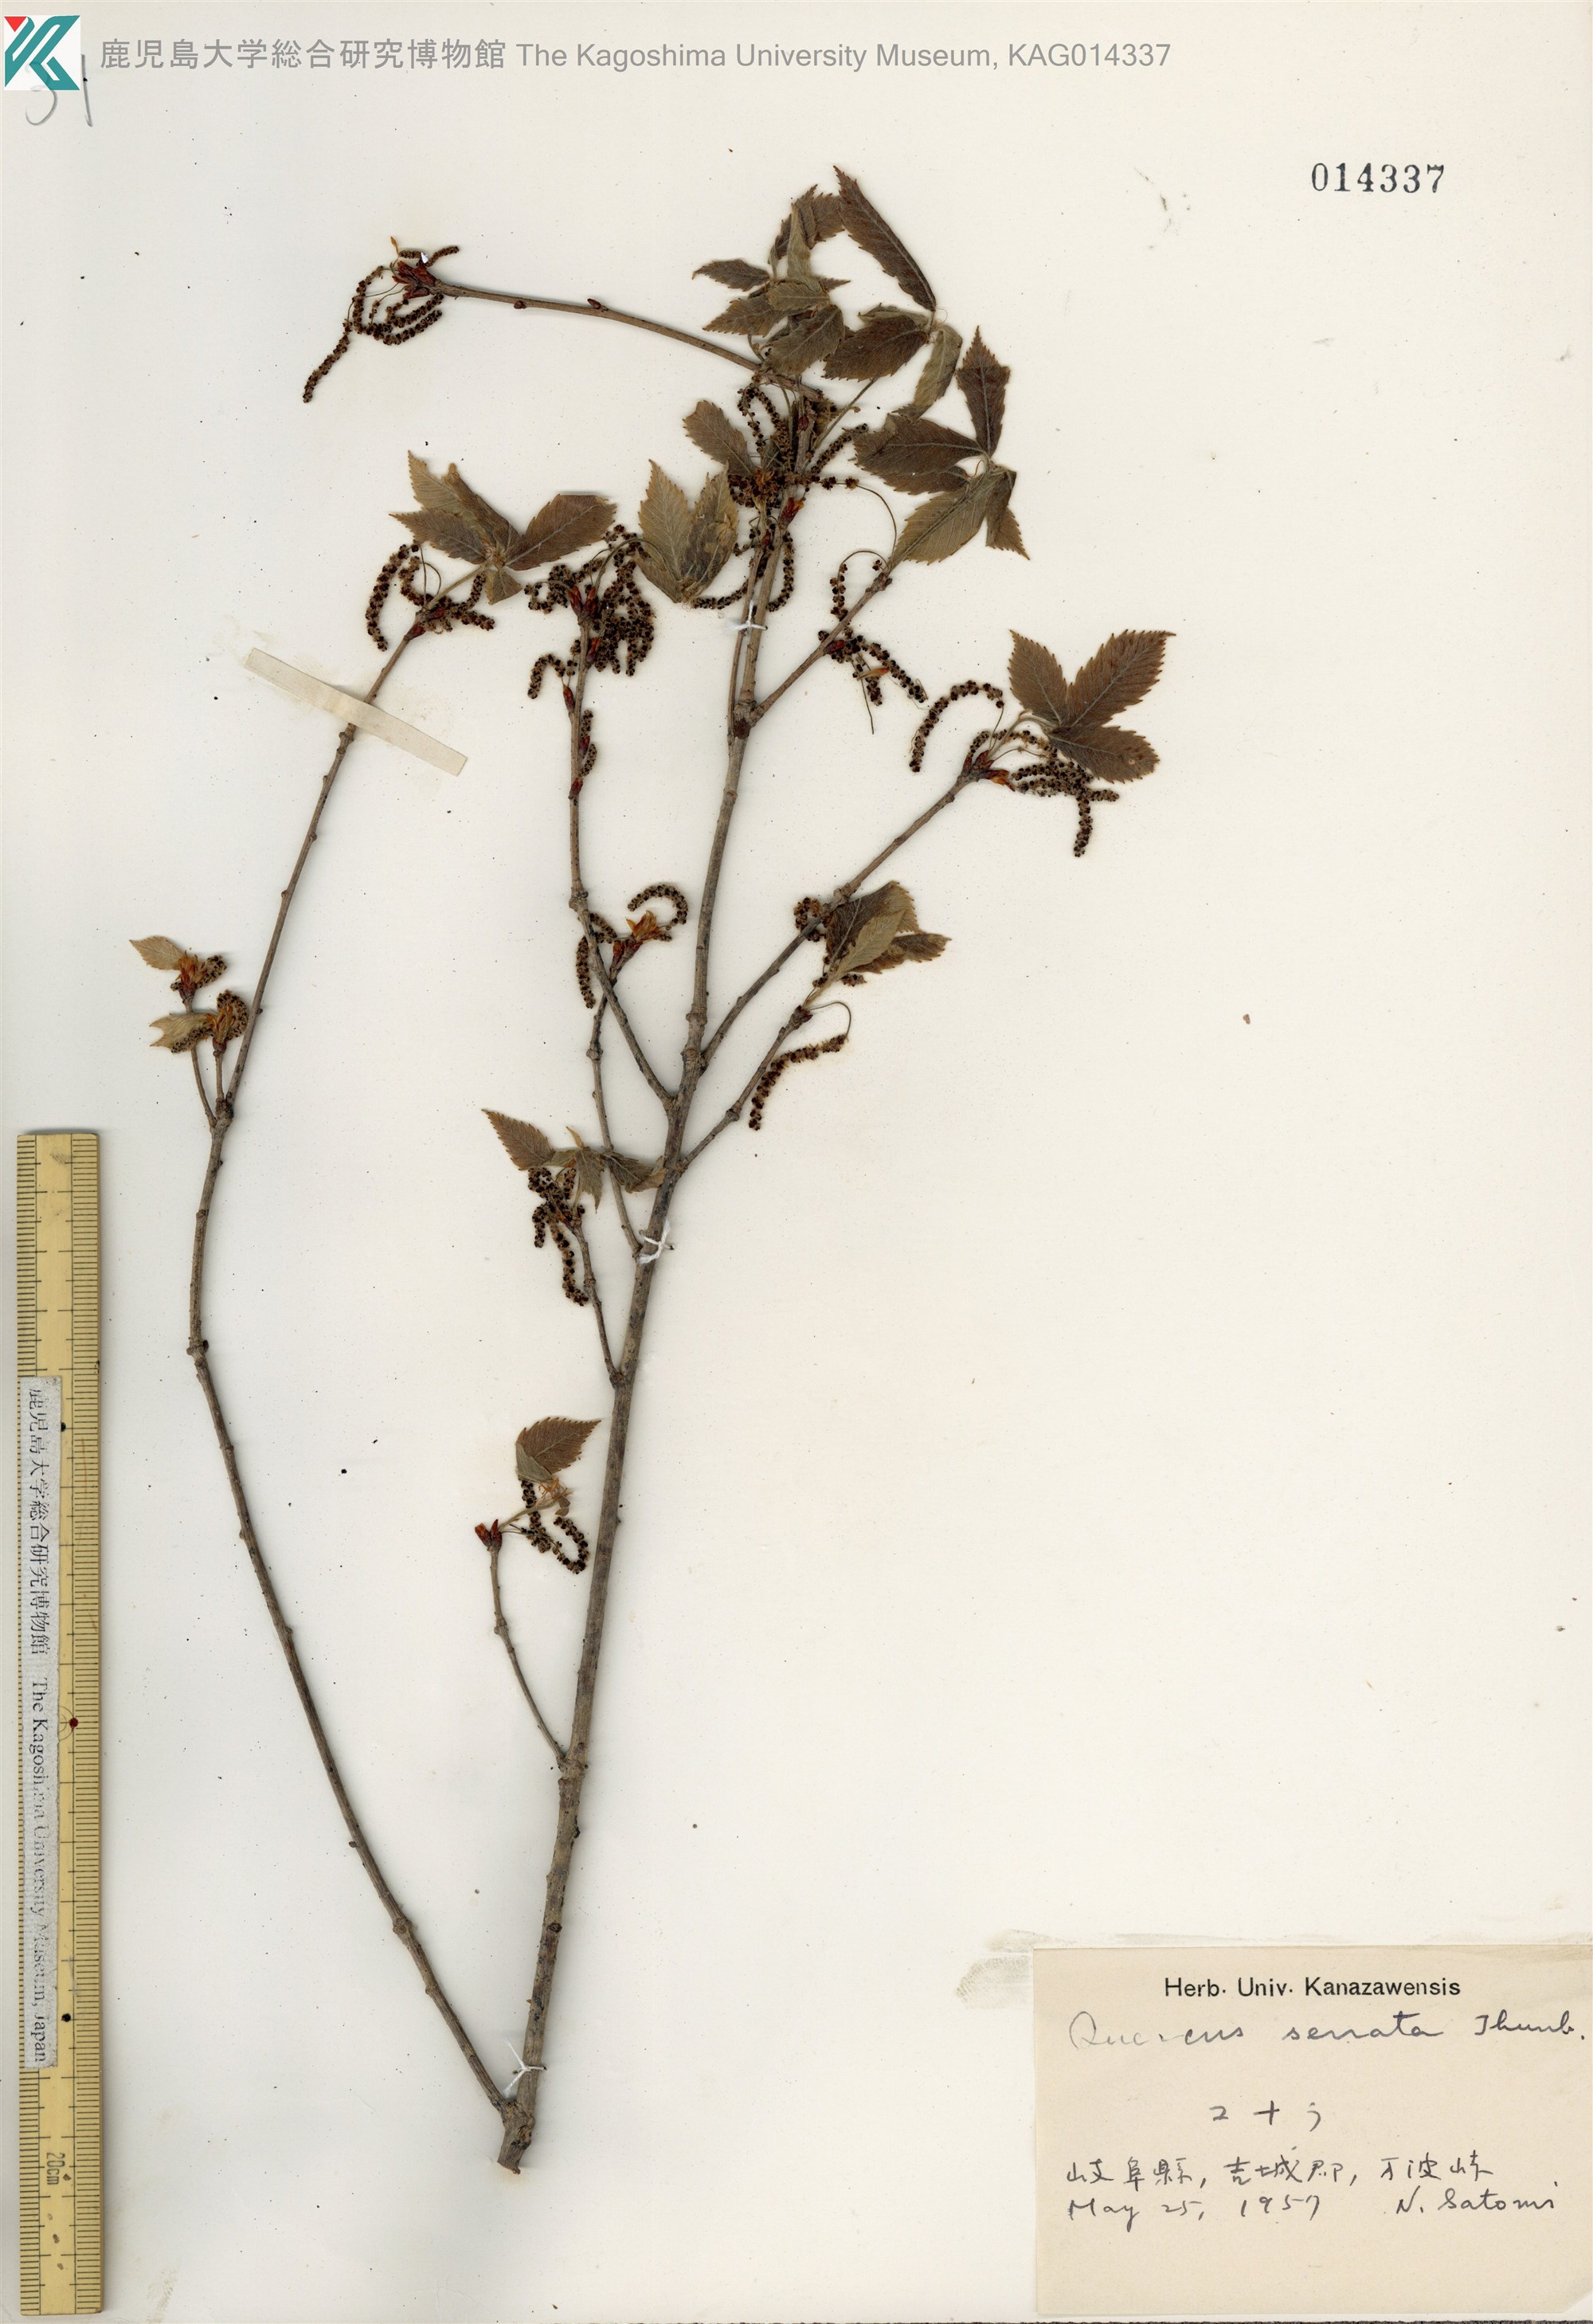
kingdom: Plantae
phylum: Tracheophyta
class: Magnoliopsida
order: Fagales
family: Fagaceae
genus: Quercus
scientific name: Quercus serrata
